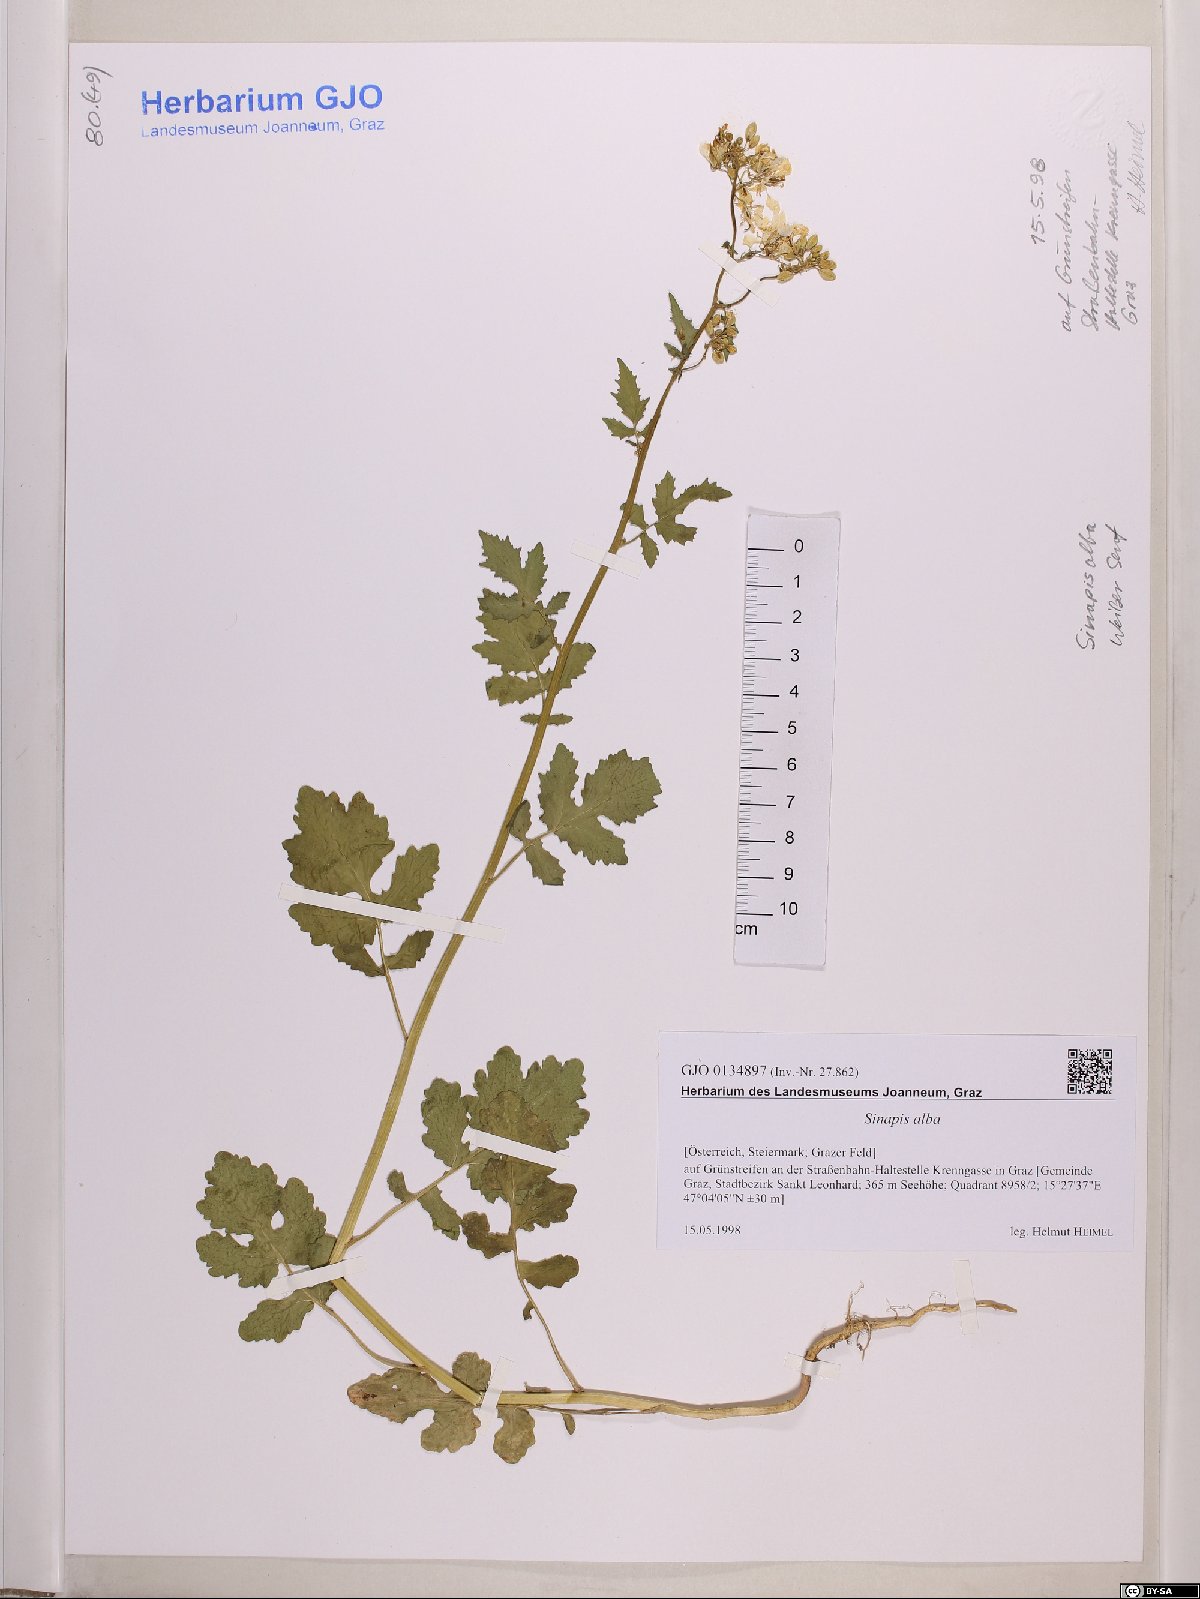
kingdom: Plantae
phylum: Tracheophyta
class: Magnoliopsida
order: Brassicales
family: Brassicaceae
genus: Sinapis
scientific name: Sinapis alba
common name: White mustard
